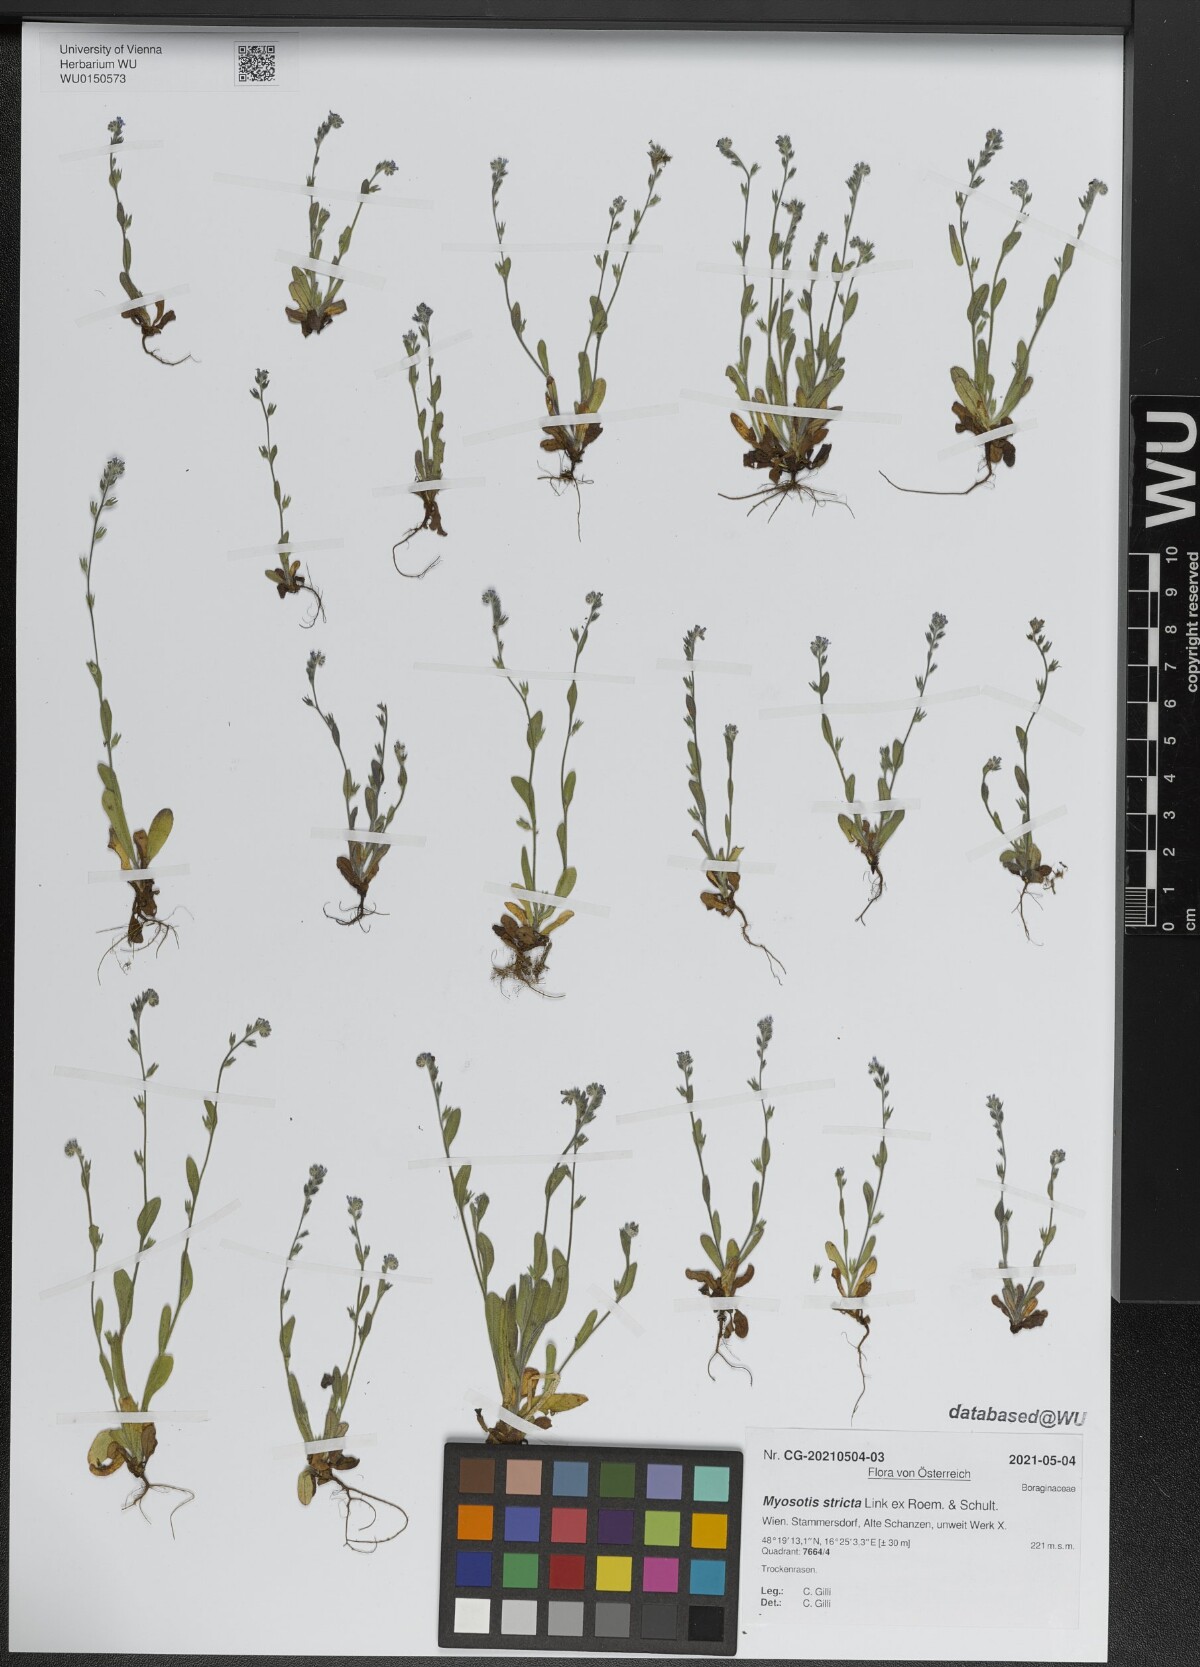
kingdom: Plantae
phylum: Tracheophyta
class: Magnoliopsida
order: Boraginales
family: Boraginaceae
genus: Myosotis
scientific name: Myosotis stricta
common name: Strict forget-me-not
